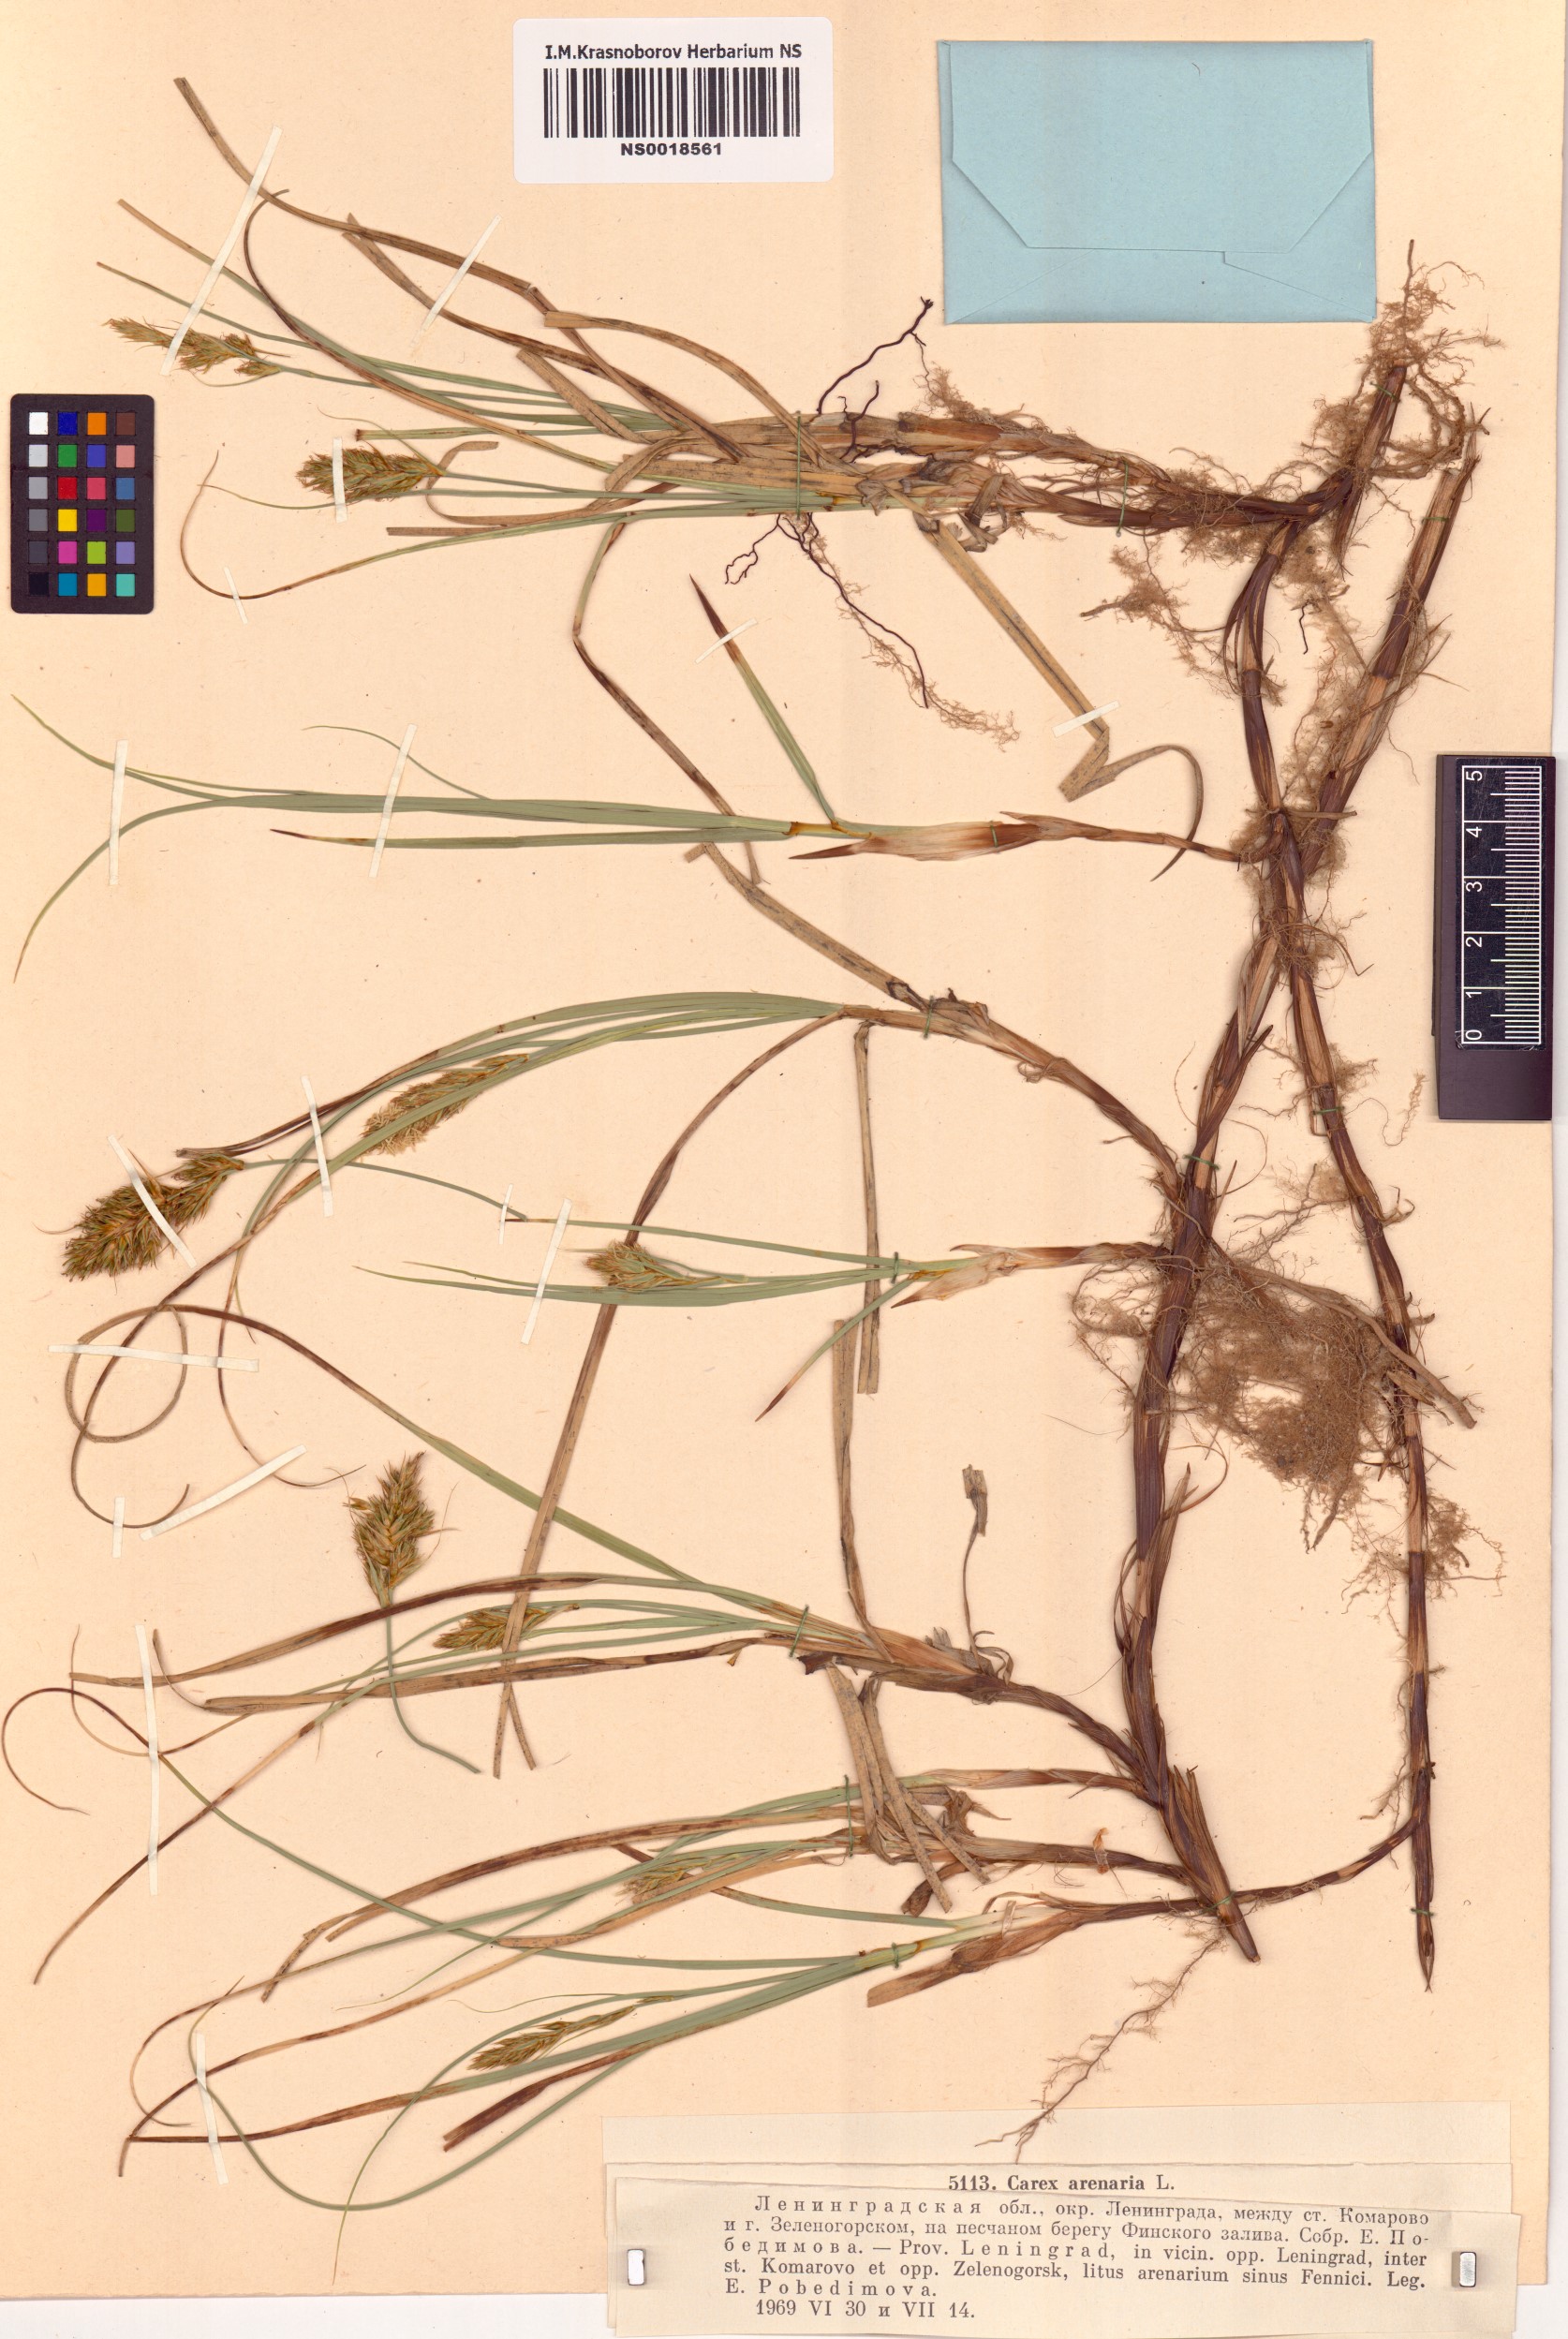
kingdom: Plantae
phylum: Tracheophyta
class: Liliopsida
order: Poales
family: Cyperaceae
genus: Carex
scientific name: Carex arenaria
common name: Sand sedge
